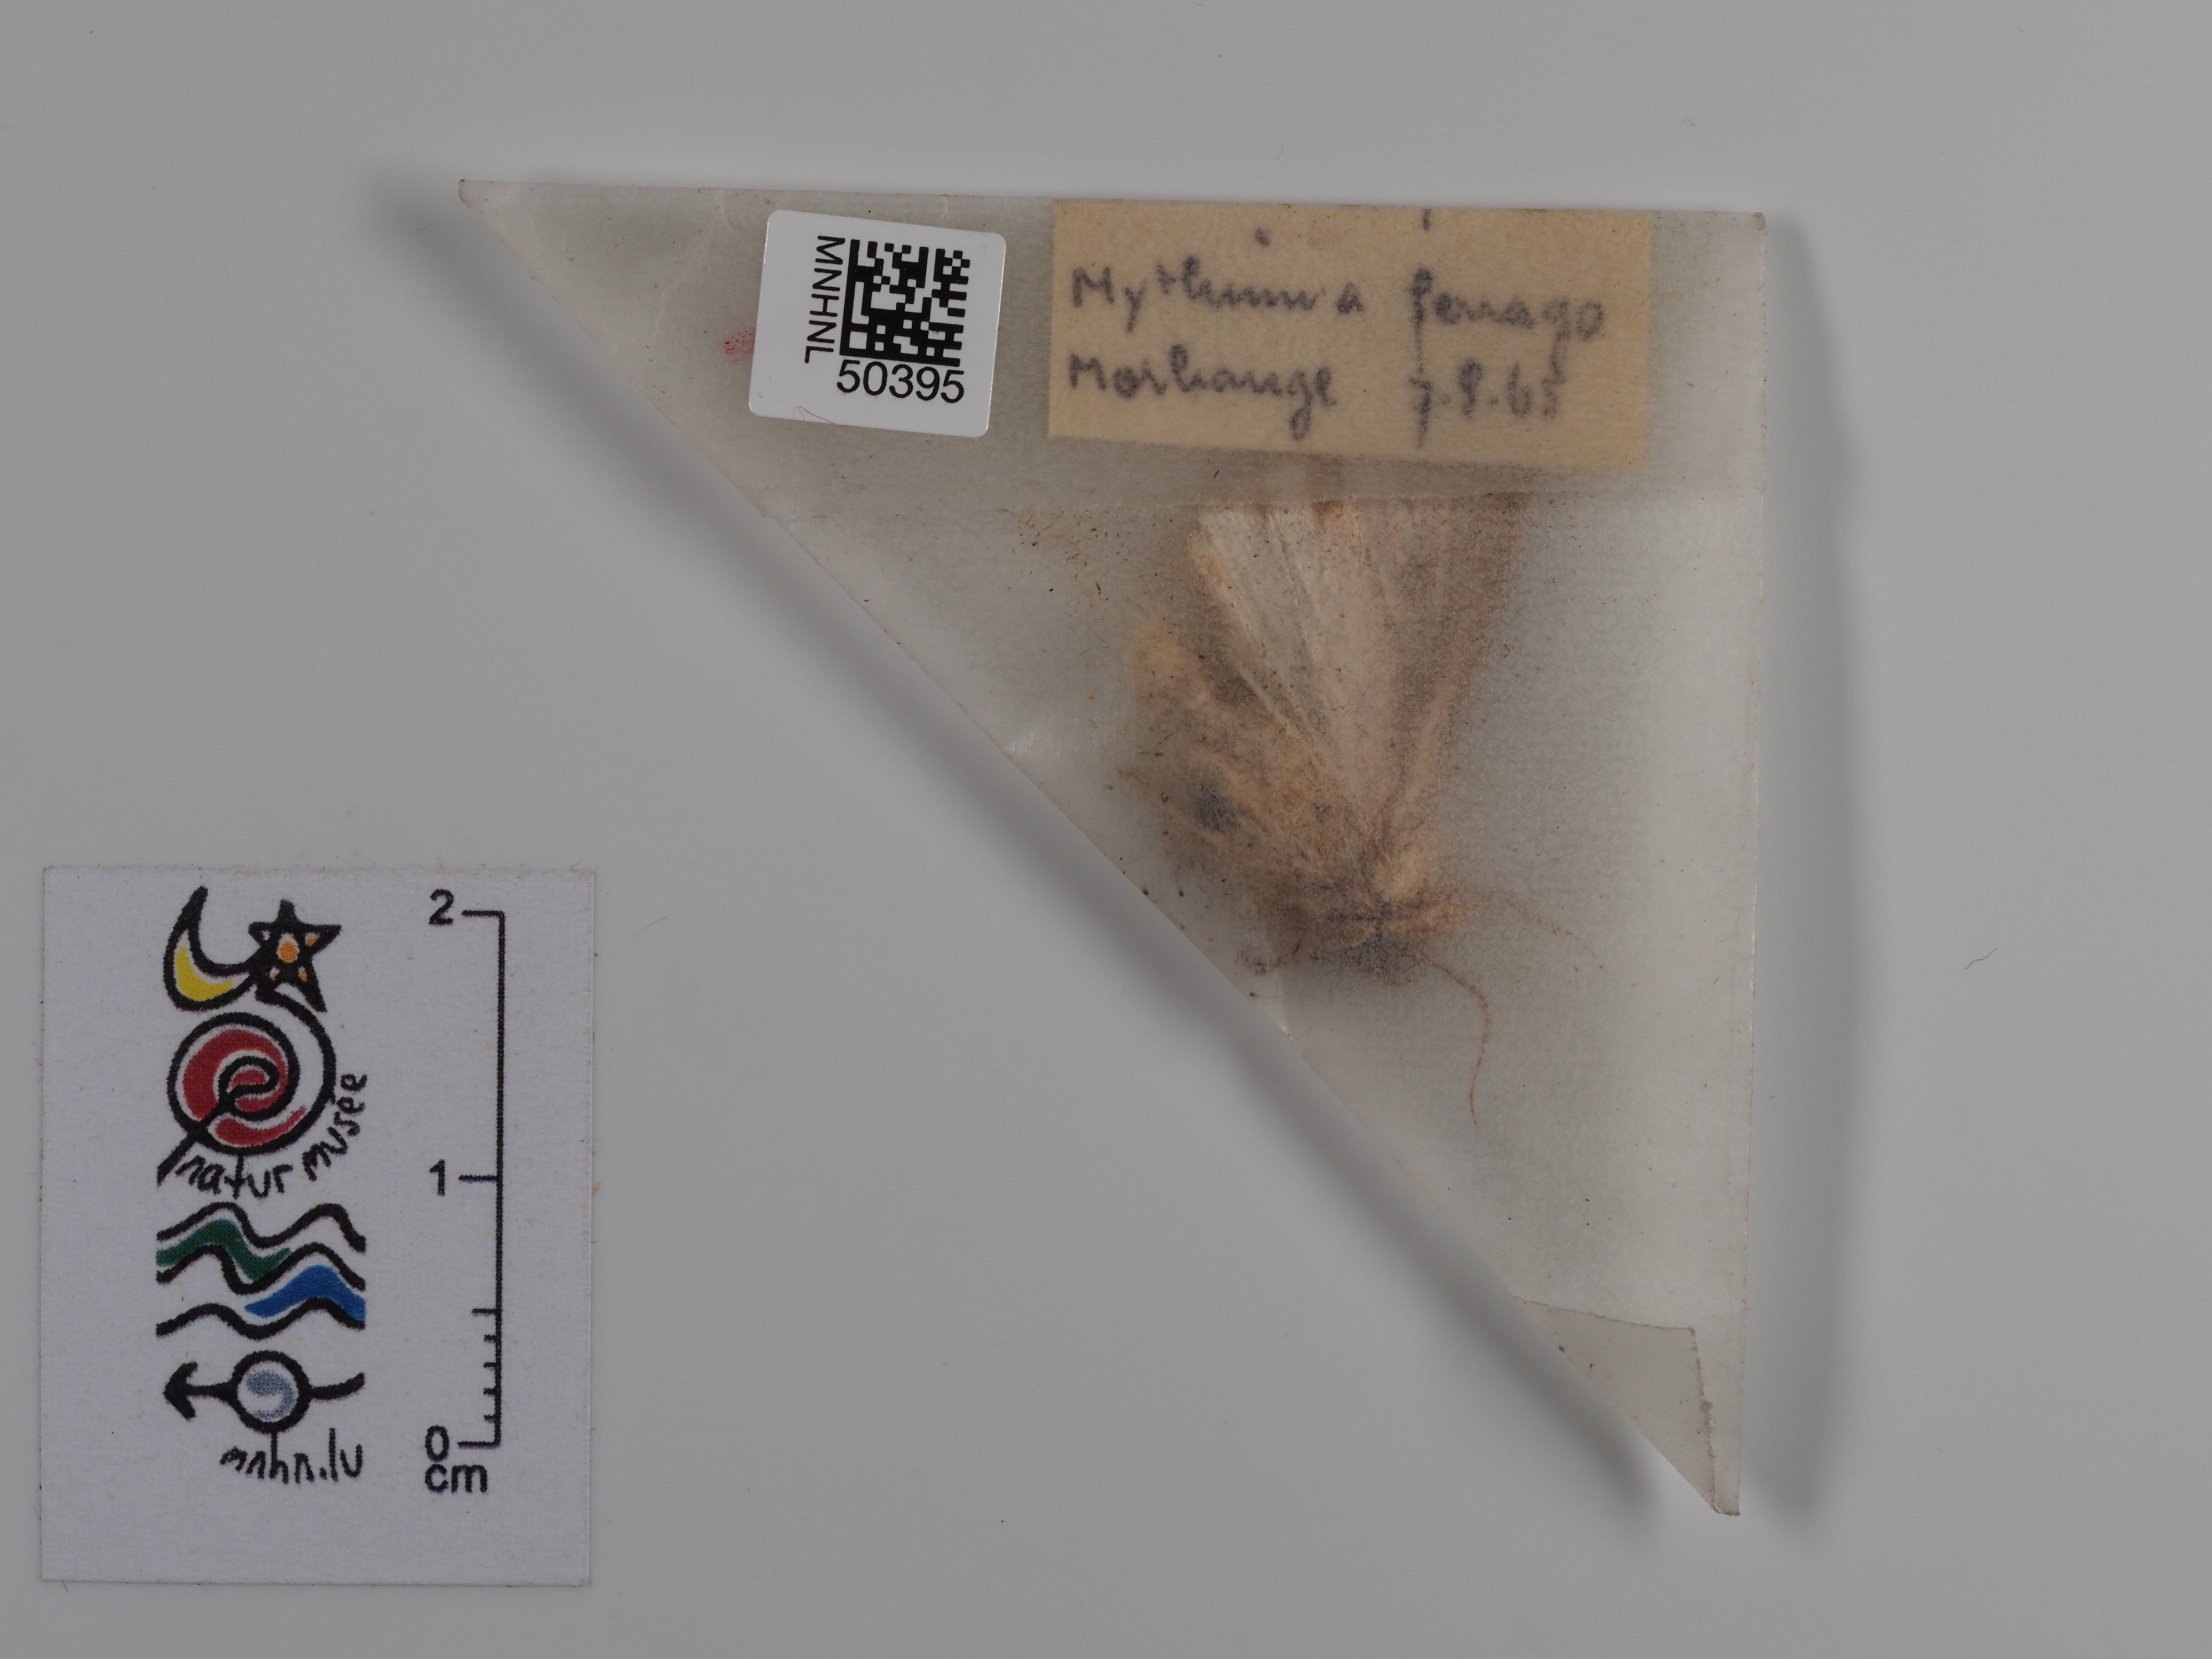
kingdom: Animalia
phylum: Arthropoda
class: Insecta
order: Lepidoptera
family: Noctuidae
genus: Mythimna
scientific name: Mythimna ferrago
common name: Clay
